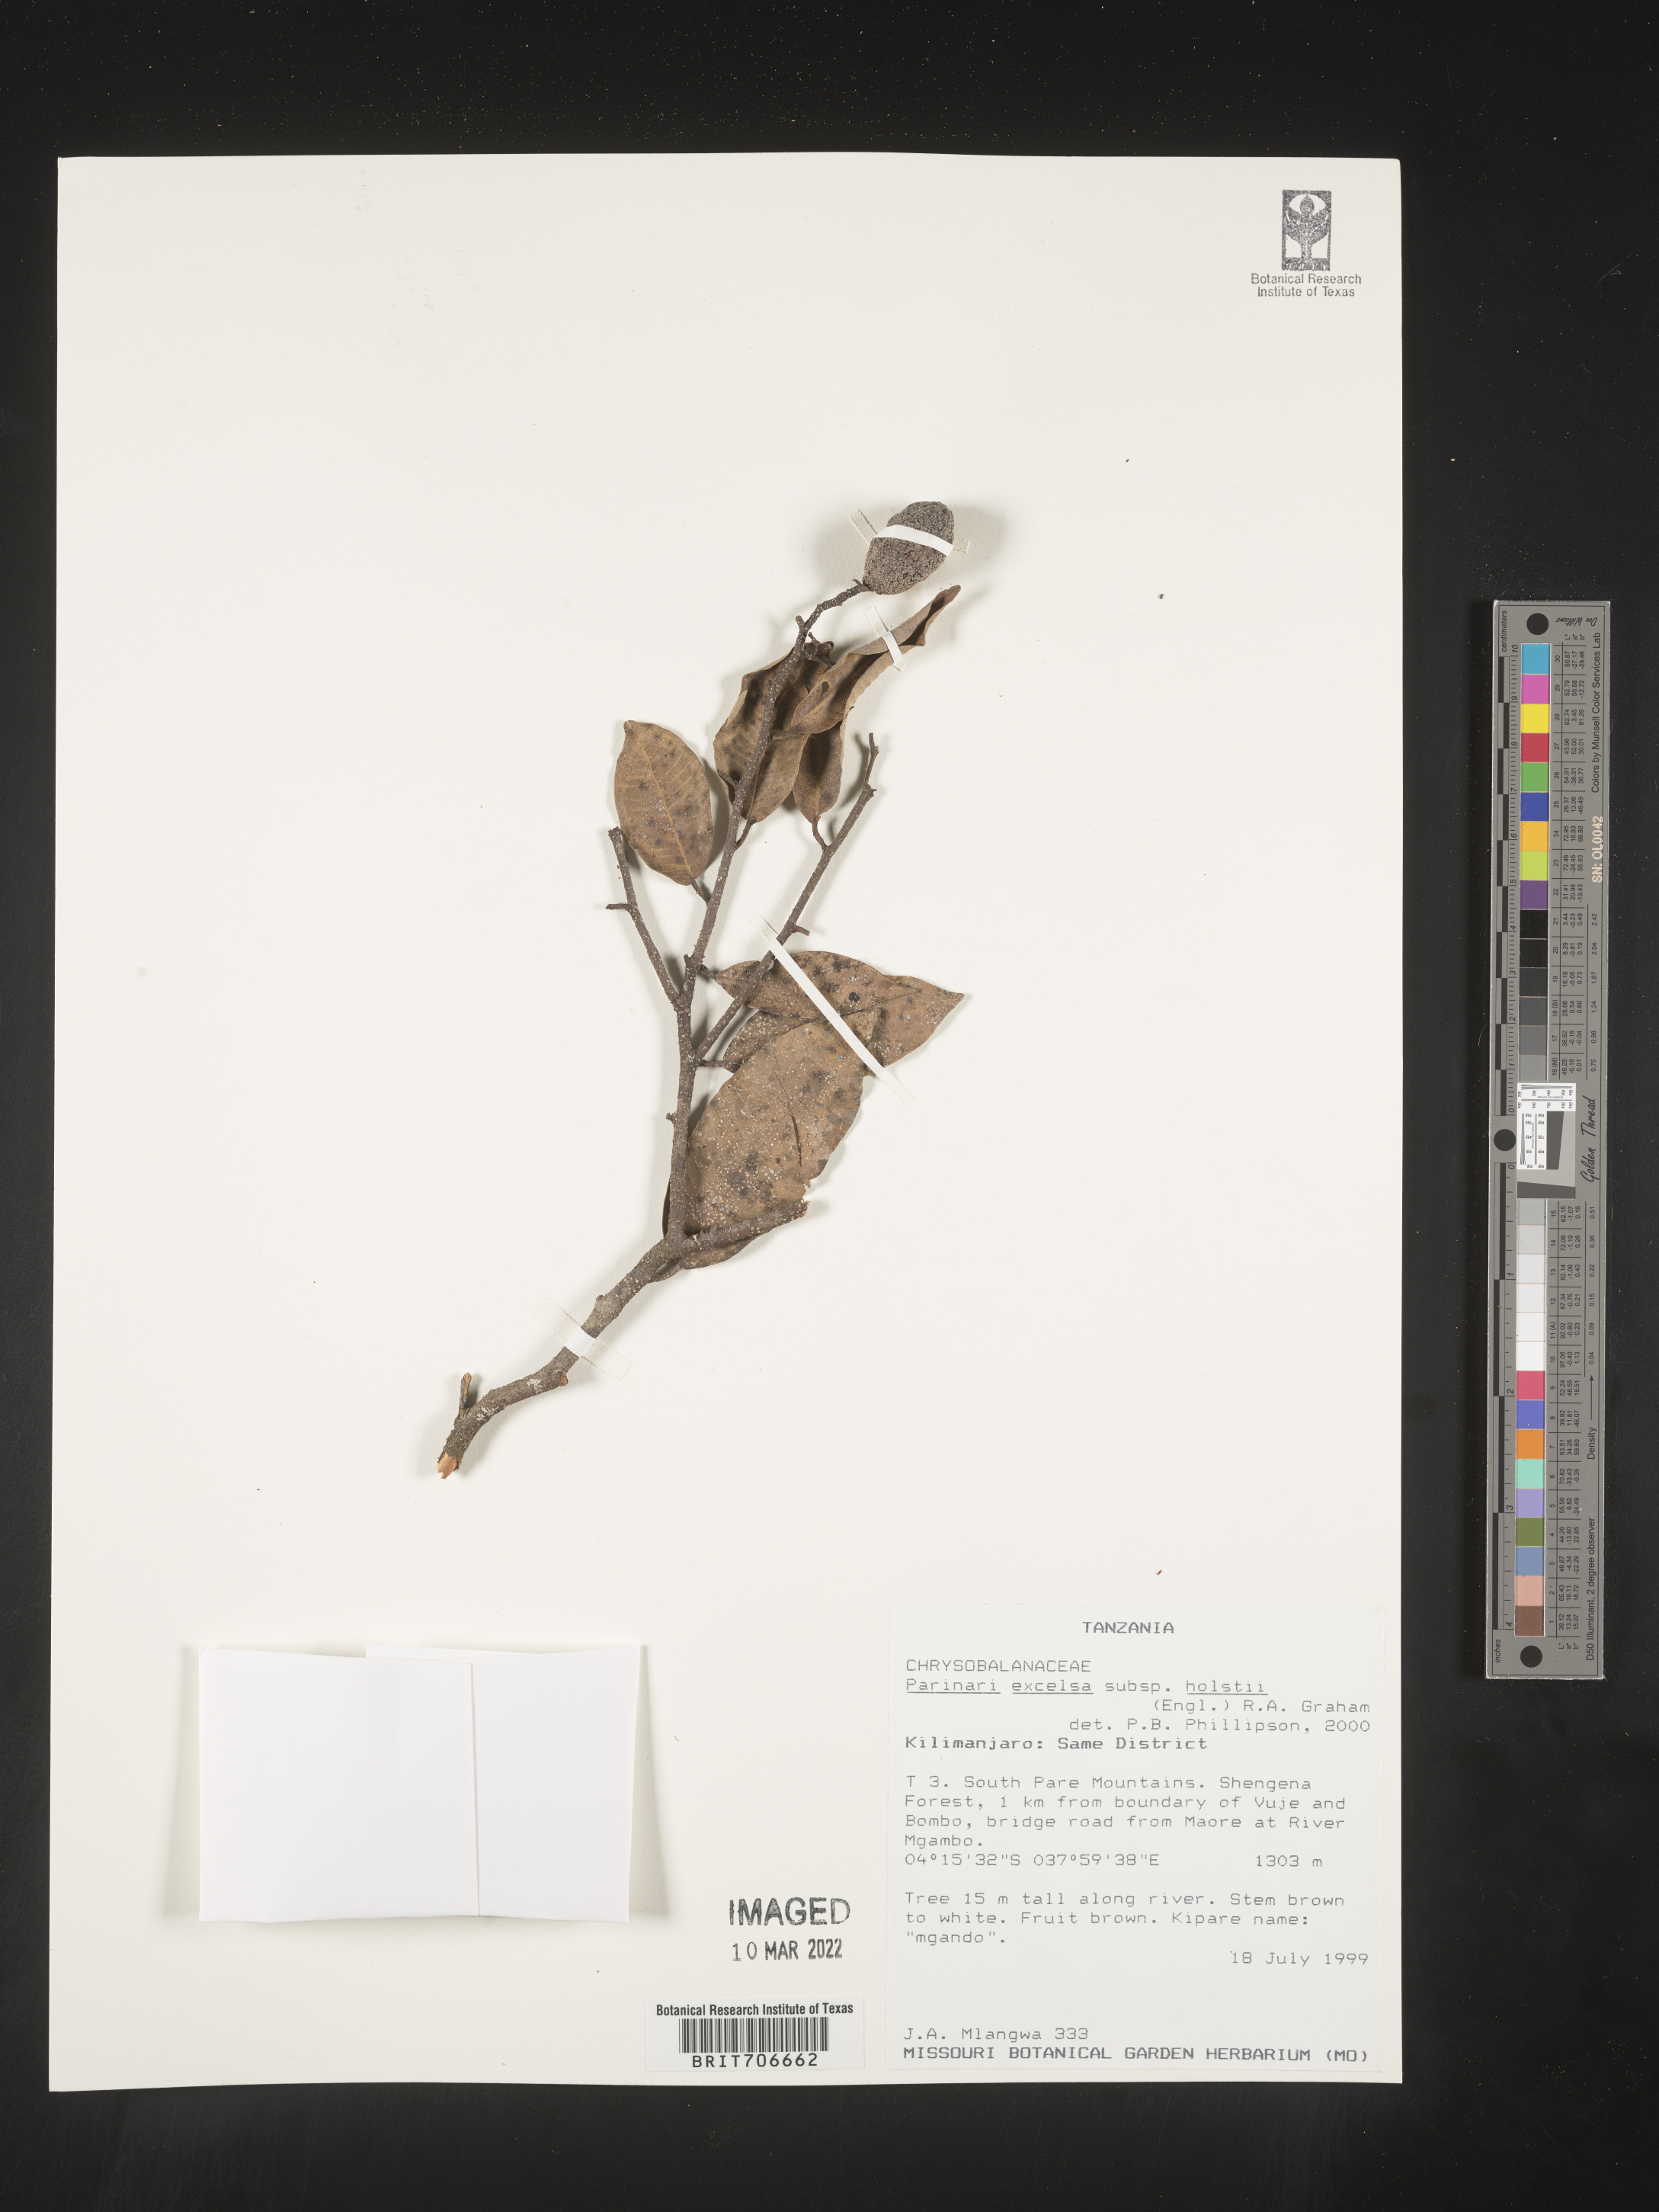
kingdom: Plantae
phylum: Tracheophyta
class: Magnoliopsida
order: Malpighiales
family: Chrysobalanaceae
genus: Parinari
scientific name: Parinari
